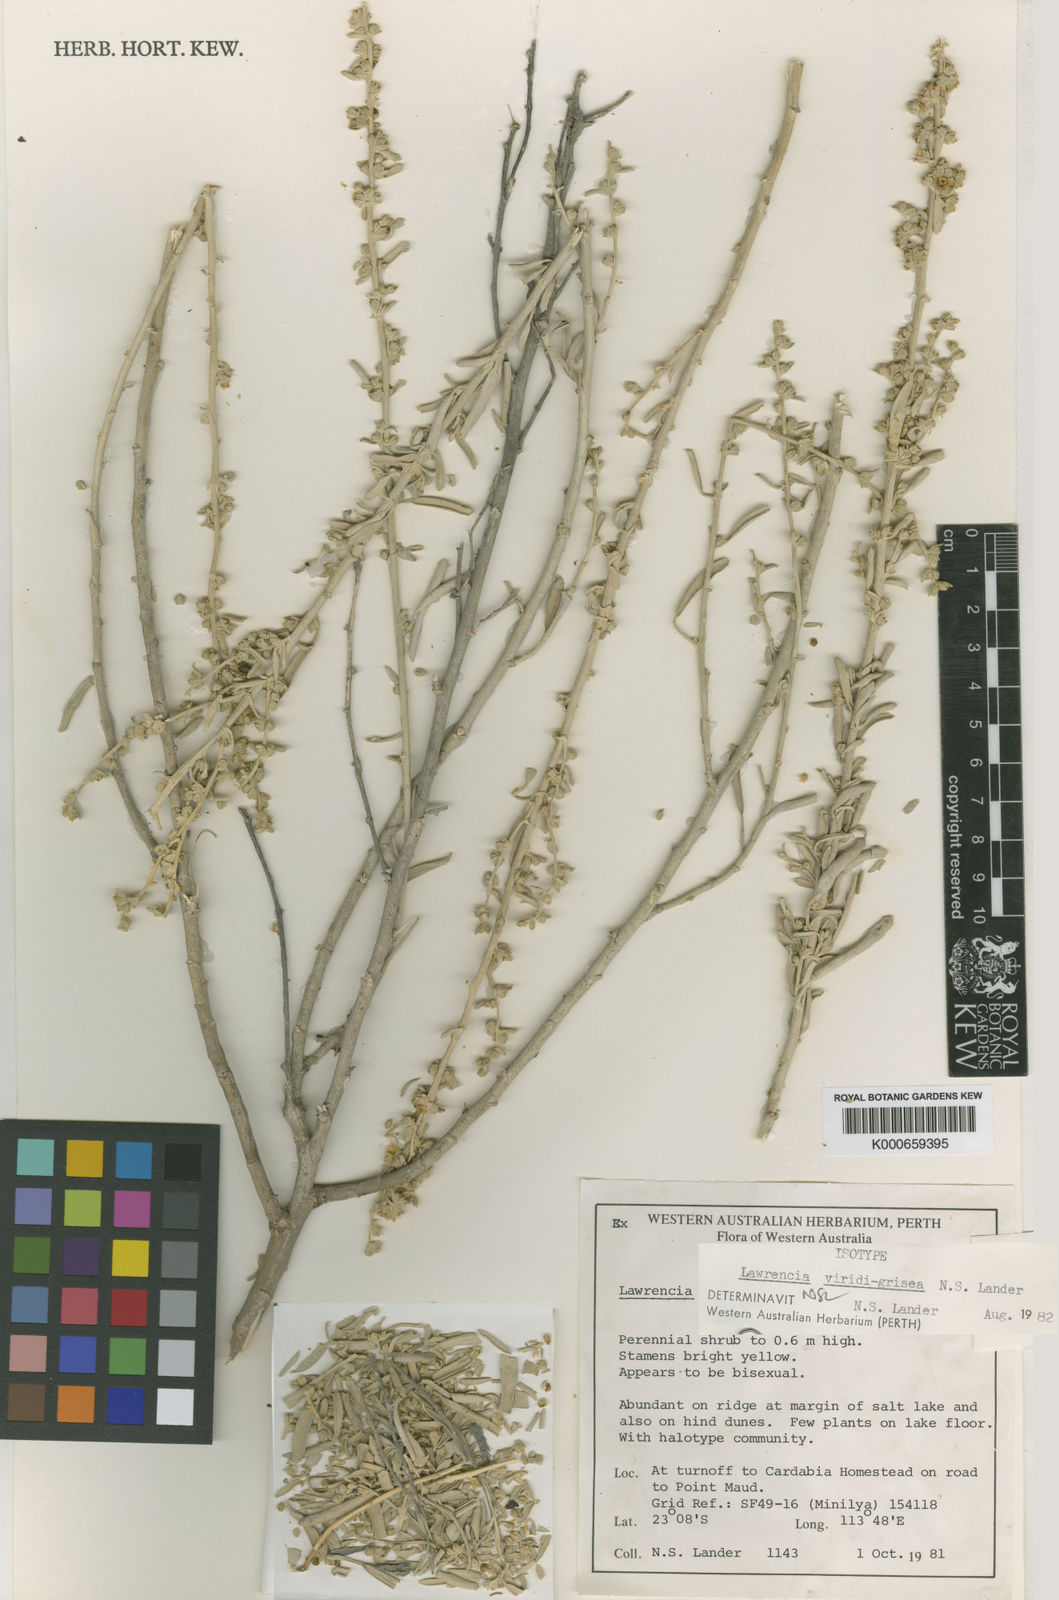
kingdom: Plantae
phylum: Tracheophyta
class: Magnoliopsida
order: Malvales
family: Malvaceae
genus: Lawrencia
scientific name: Lawrencia viridigrisea
